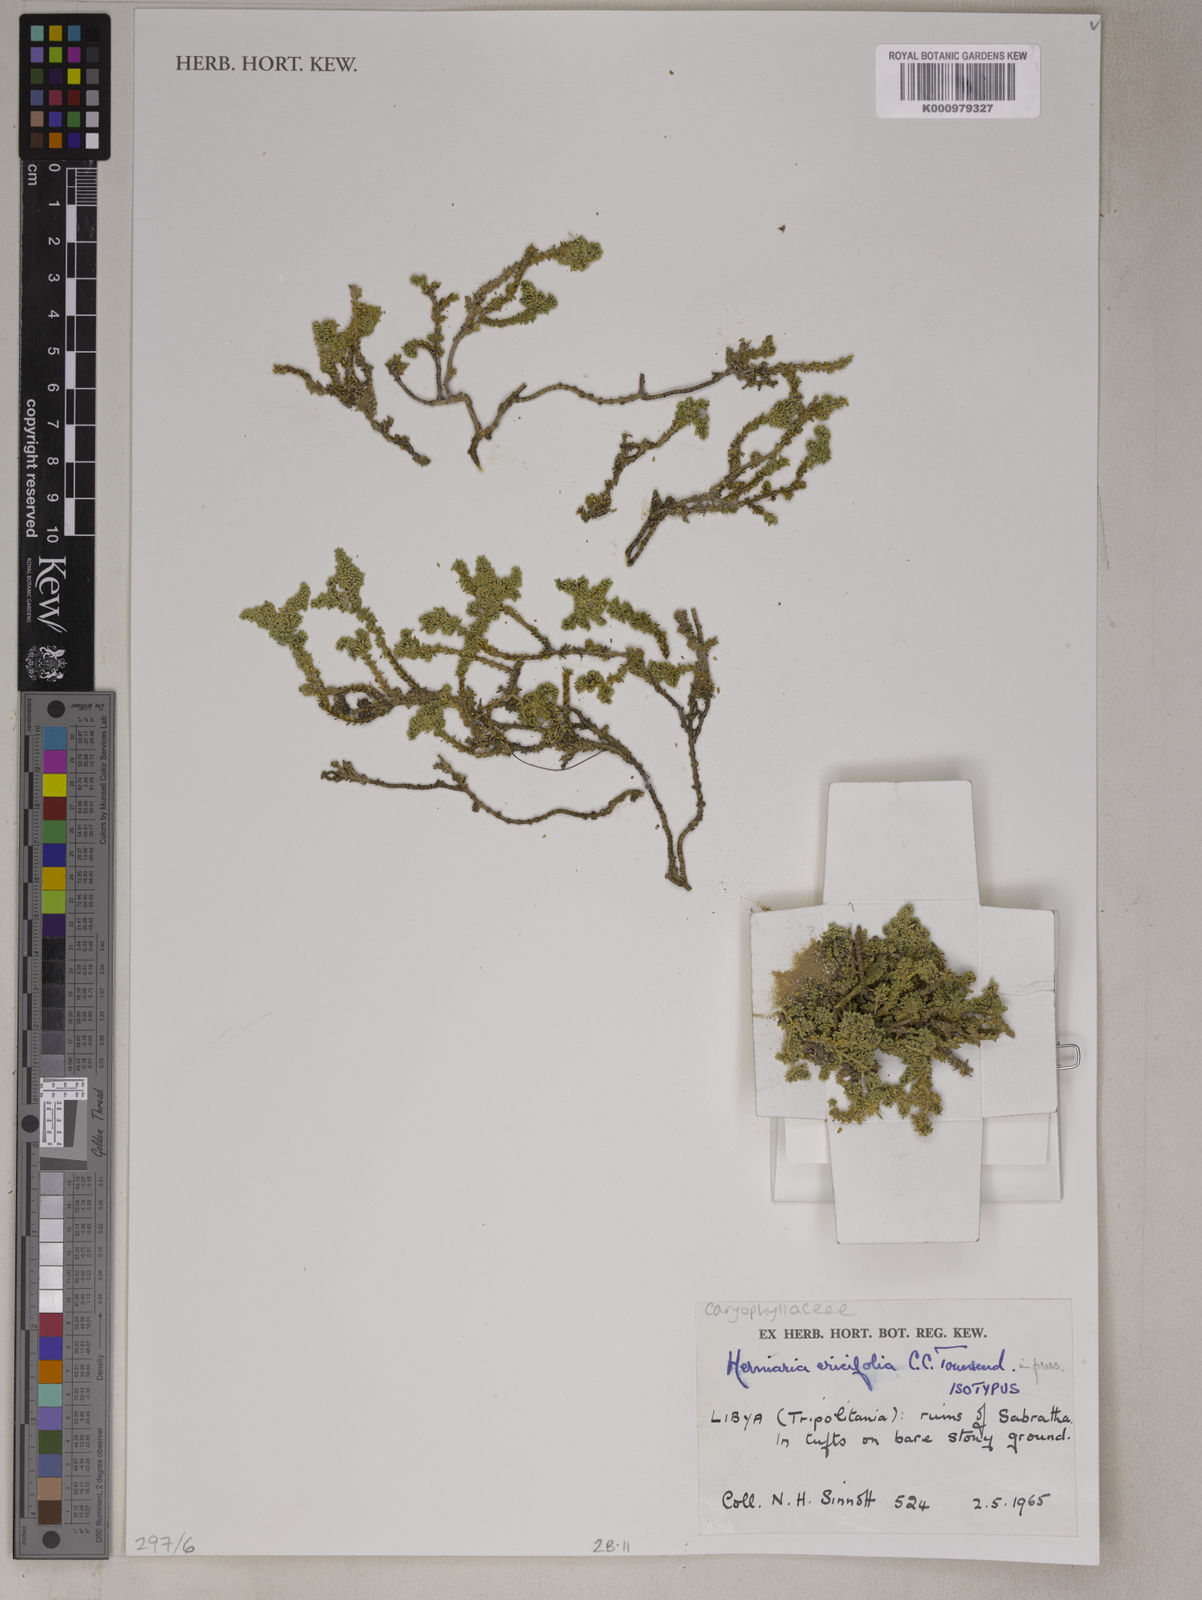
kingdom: Plantae
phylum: Tracheophyta
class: Magnoliopsida
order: Caryophyllales
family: Caryophyllaceae
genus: Herniaria
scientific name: Herniaria ericifolia
